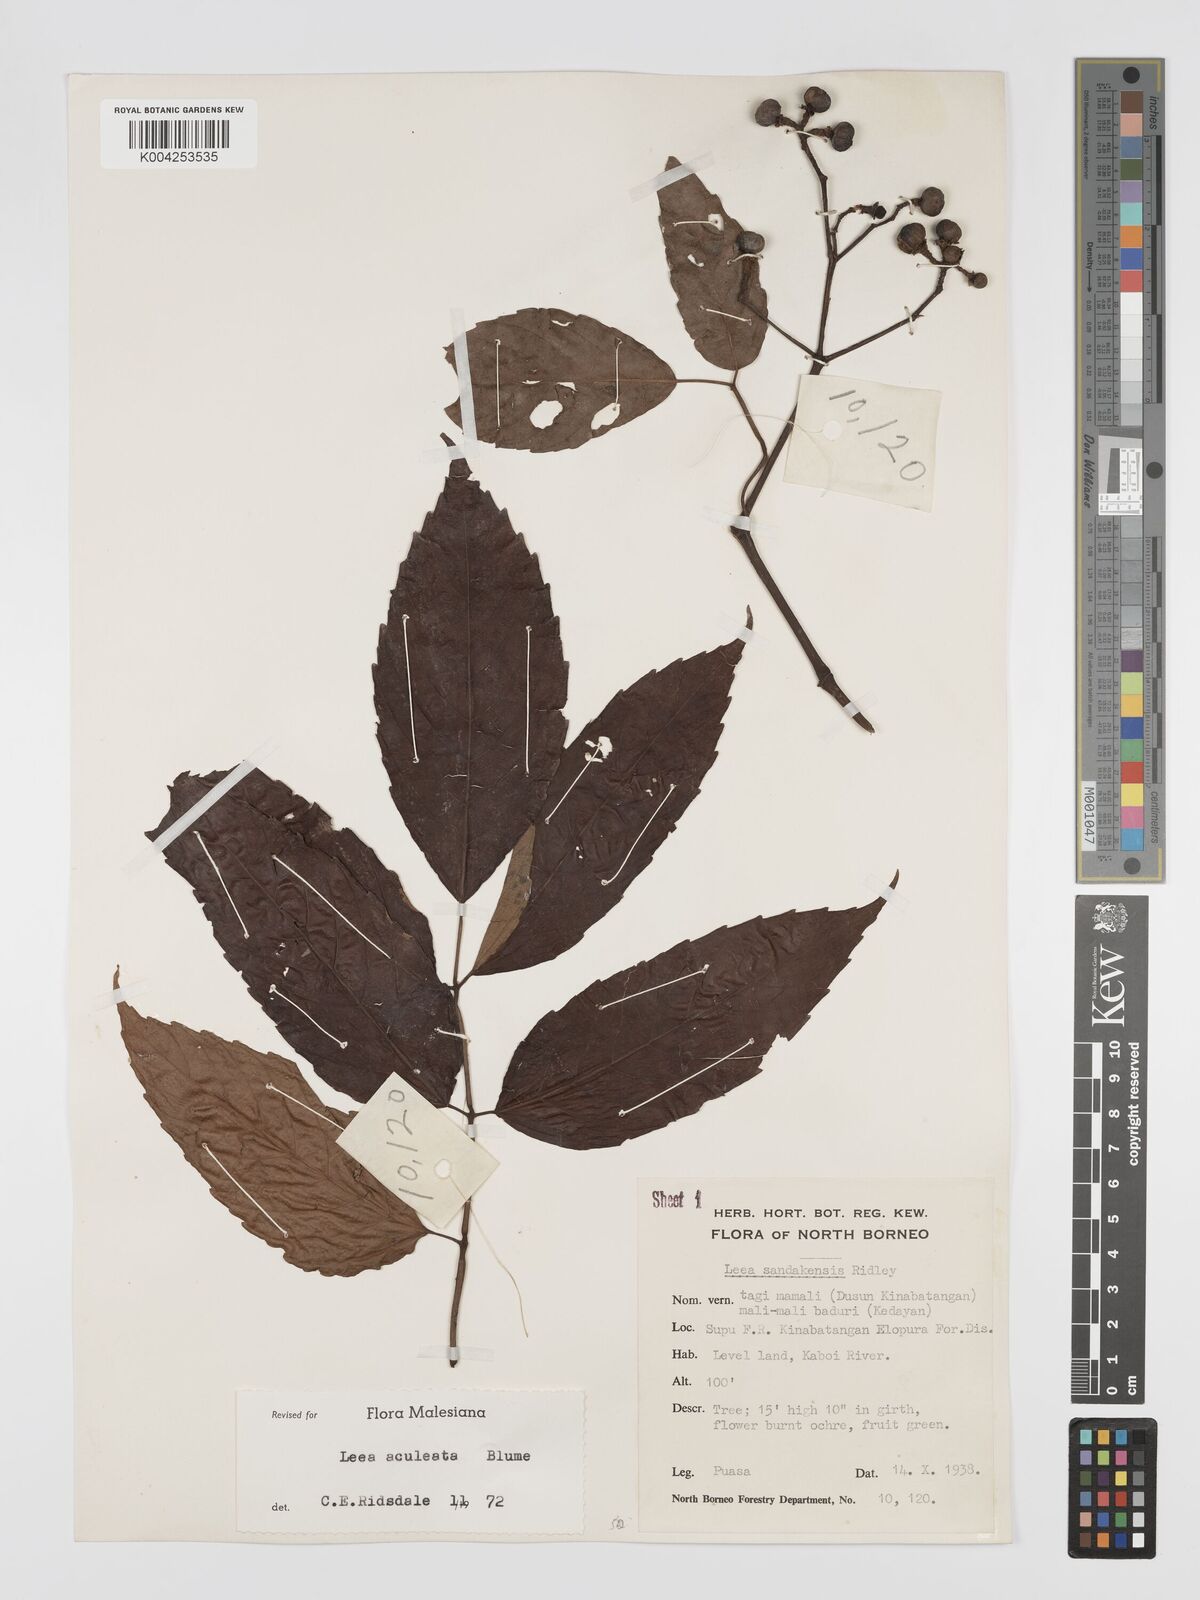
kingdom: Plantae
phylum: Tracheophyta
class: Magnoliopsida
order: Vitales
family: Vitaceae
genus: Leea
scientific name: Leea aculeata
